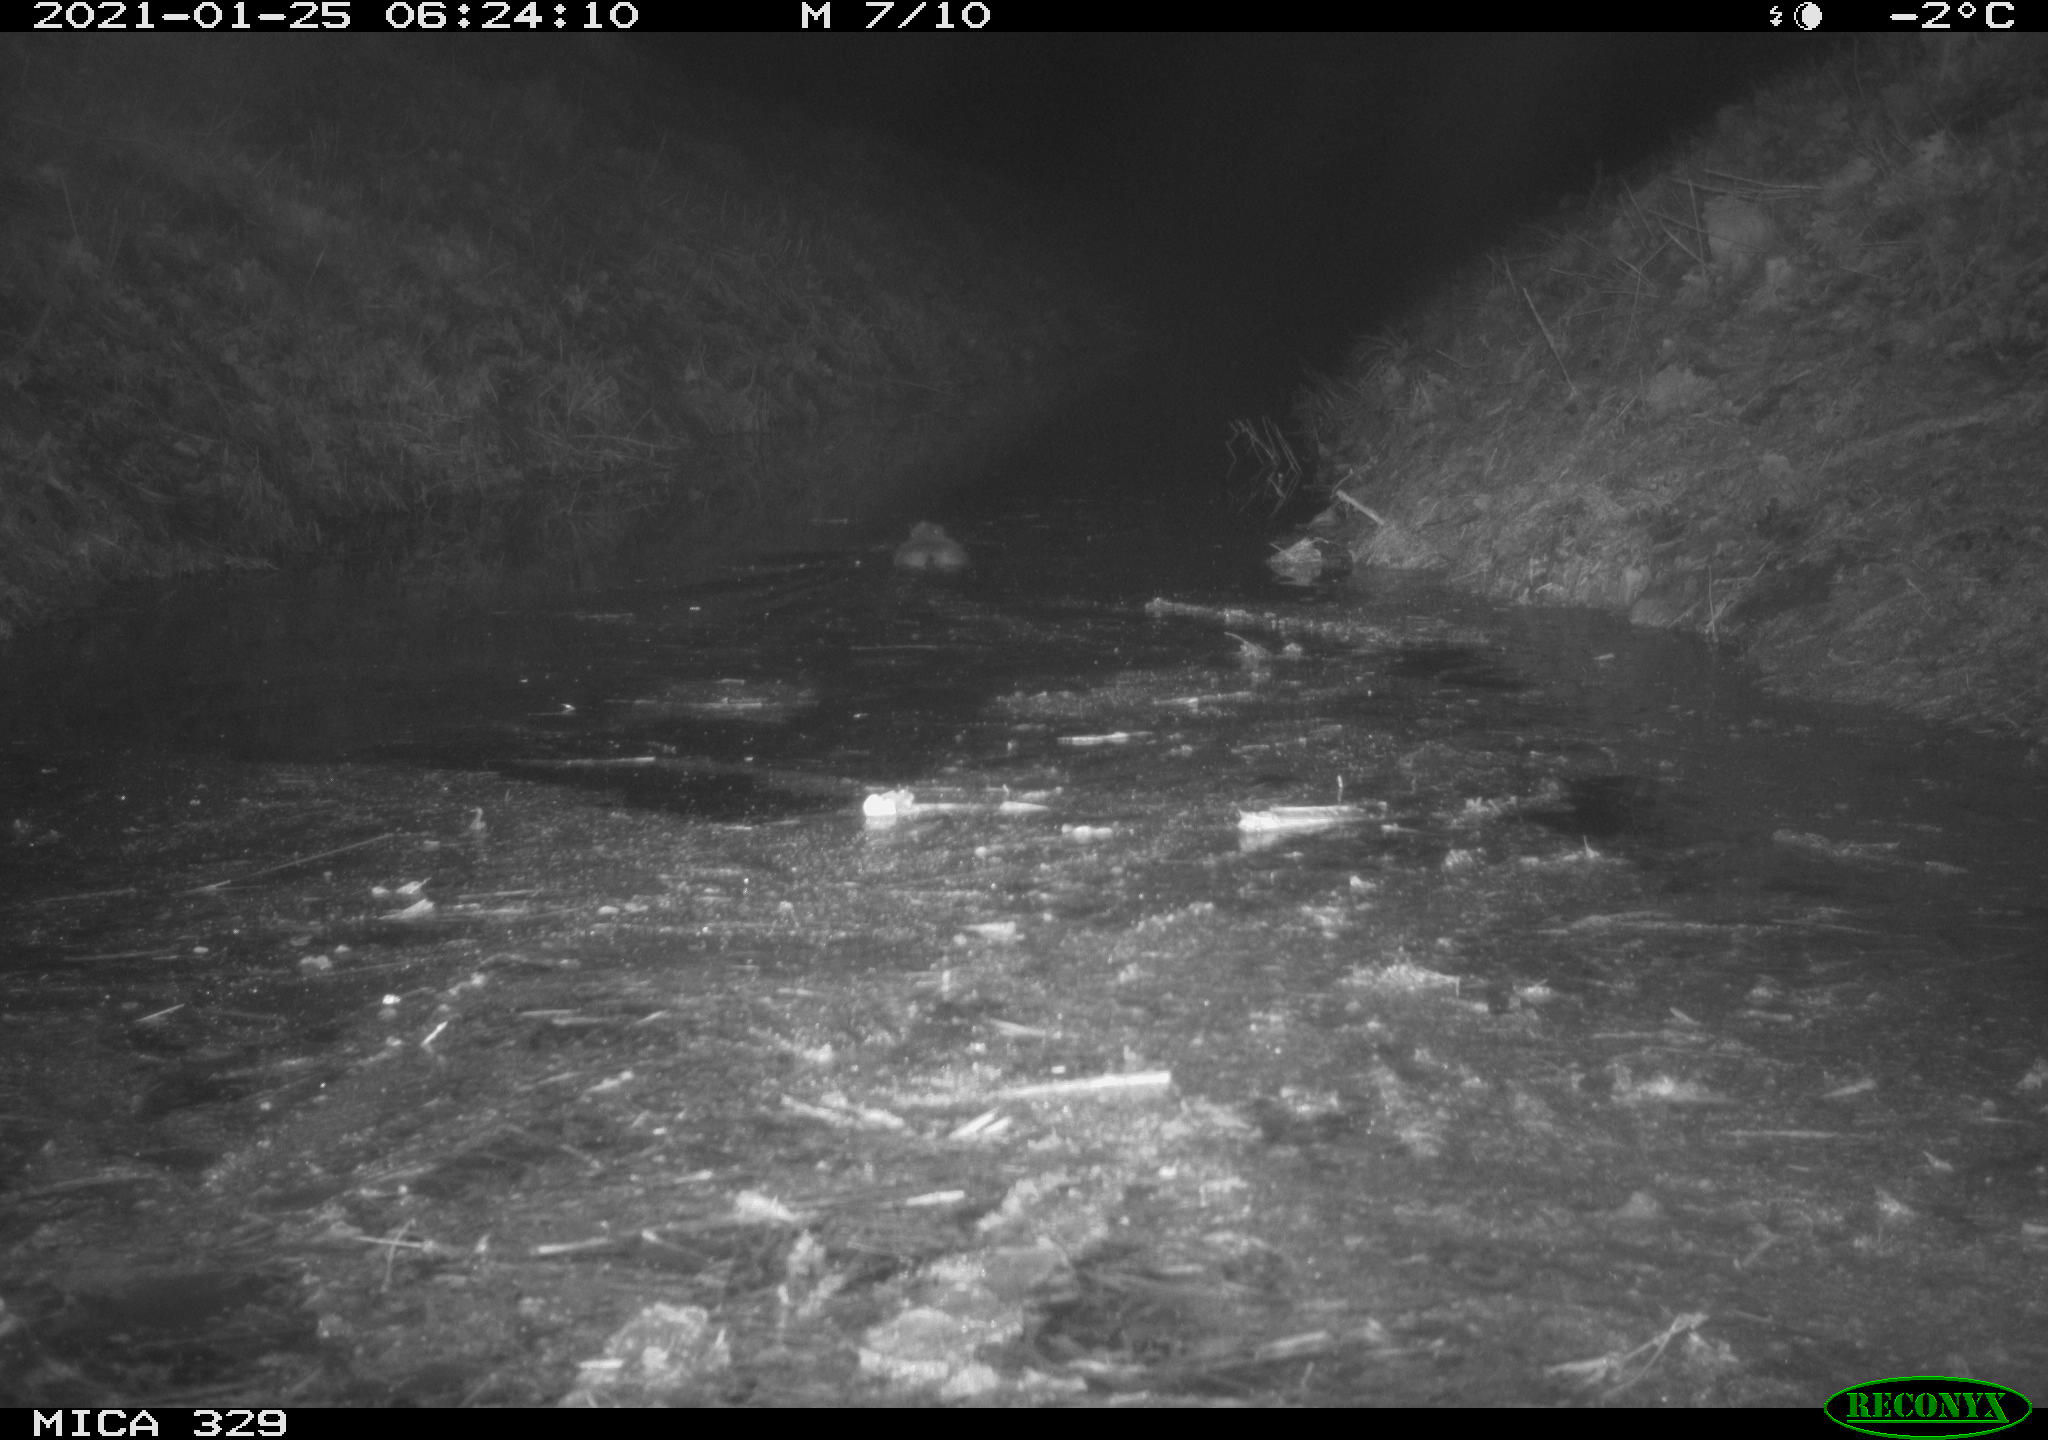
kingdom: Animalia
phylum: Chordata
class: Mammalia
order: Rodentia
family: Cricetidae
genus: Ondatra
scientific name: Ondatra zibethicus
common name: Muskrat
